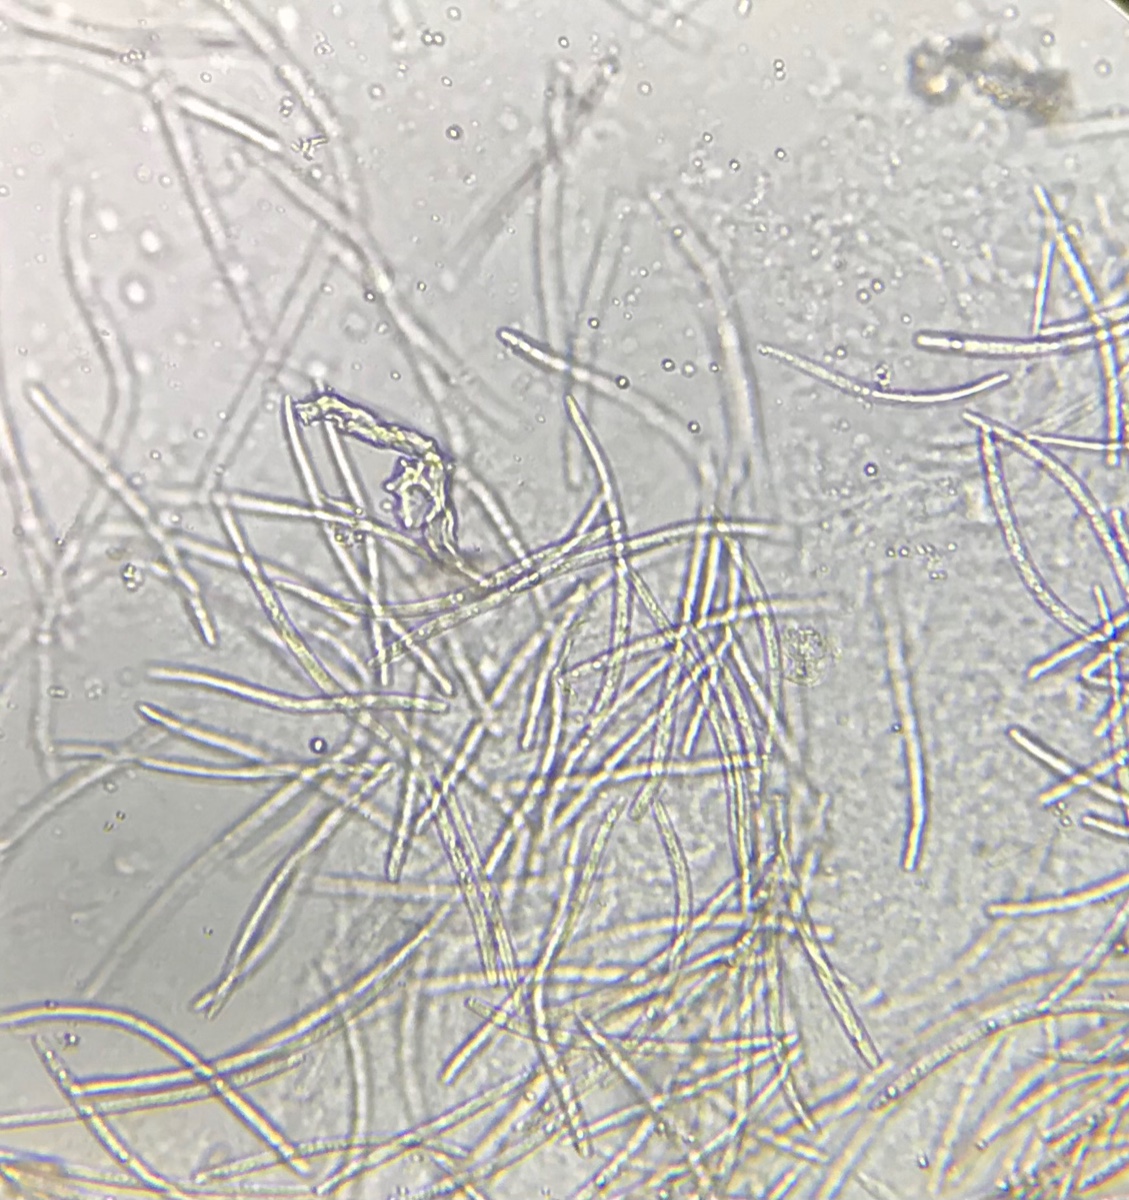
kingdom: Fungi
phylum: Ascomycota
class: Dothideomycetes
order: Mycosphaerellales
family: Mycosphaerellaceae
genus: Mycosphaerella
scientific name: Mycosphaerella podagrariae
